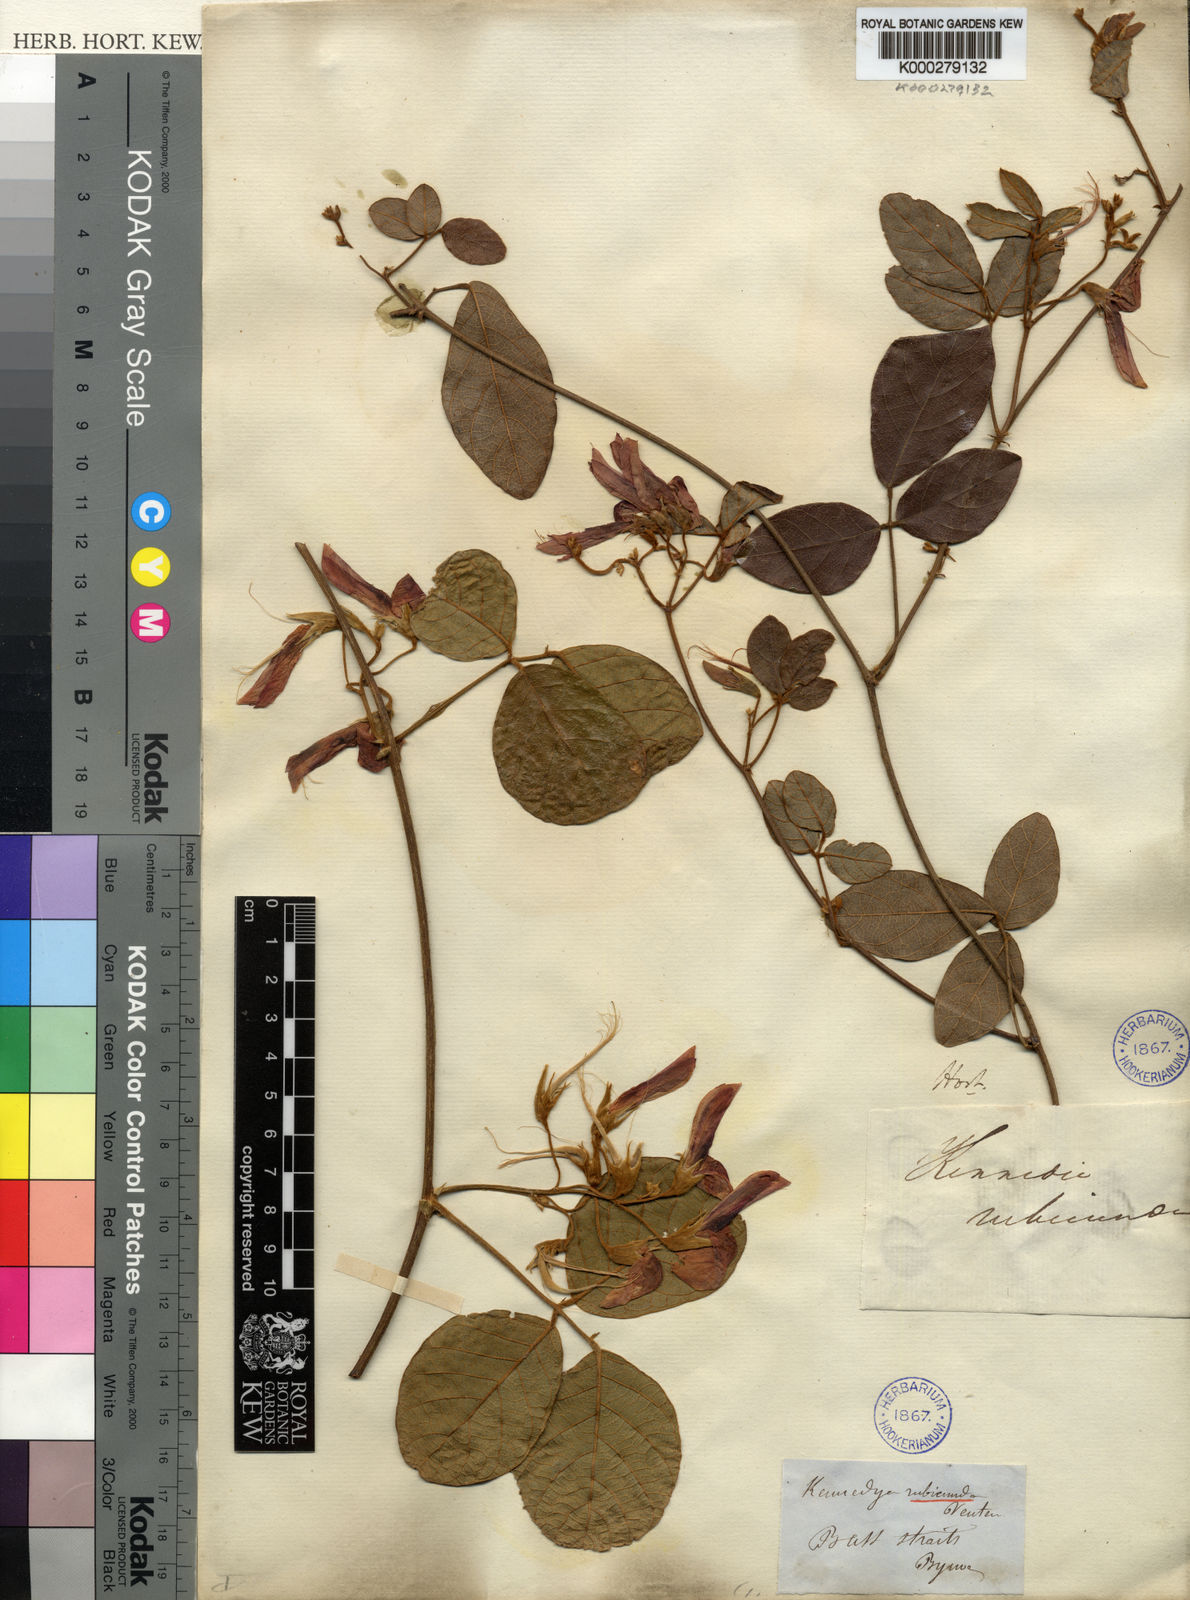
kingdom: Plantae
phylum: Tracheophyta
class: Magnoliopsida
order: Fabales
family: Fabaceae
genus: Kennedia
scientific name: Kennedia rubicunda
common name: Red kennedy-pea
